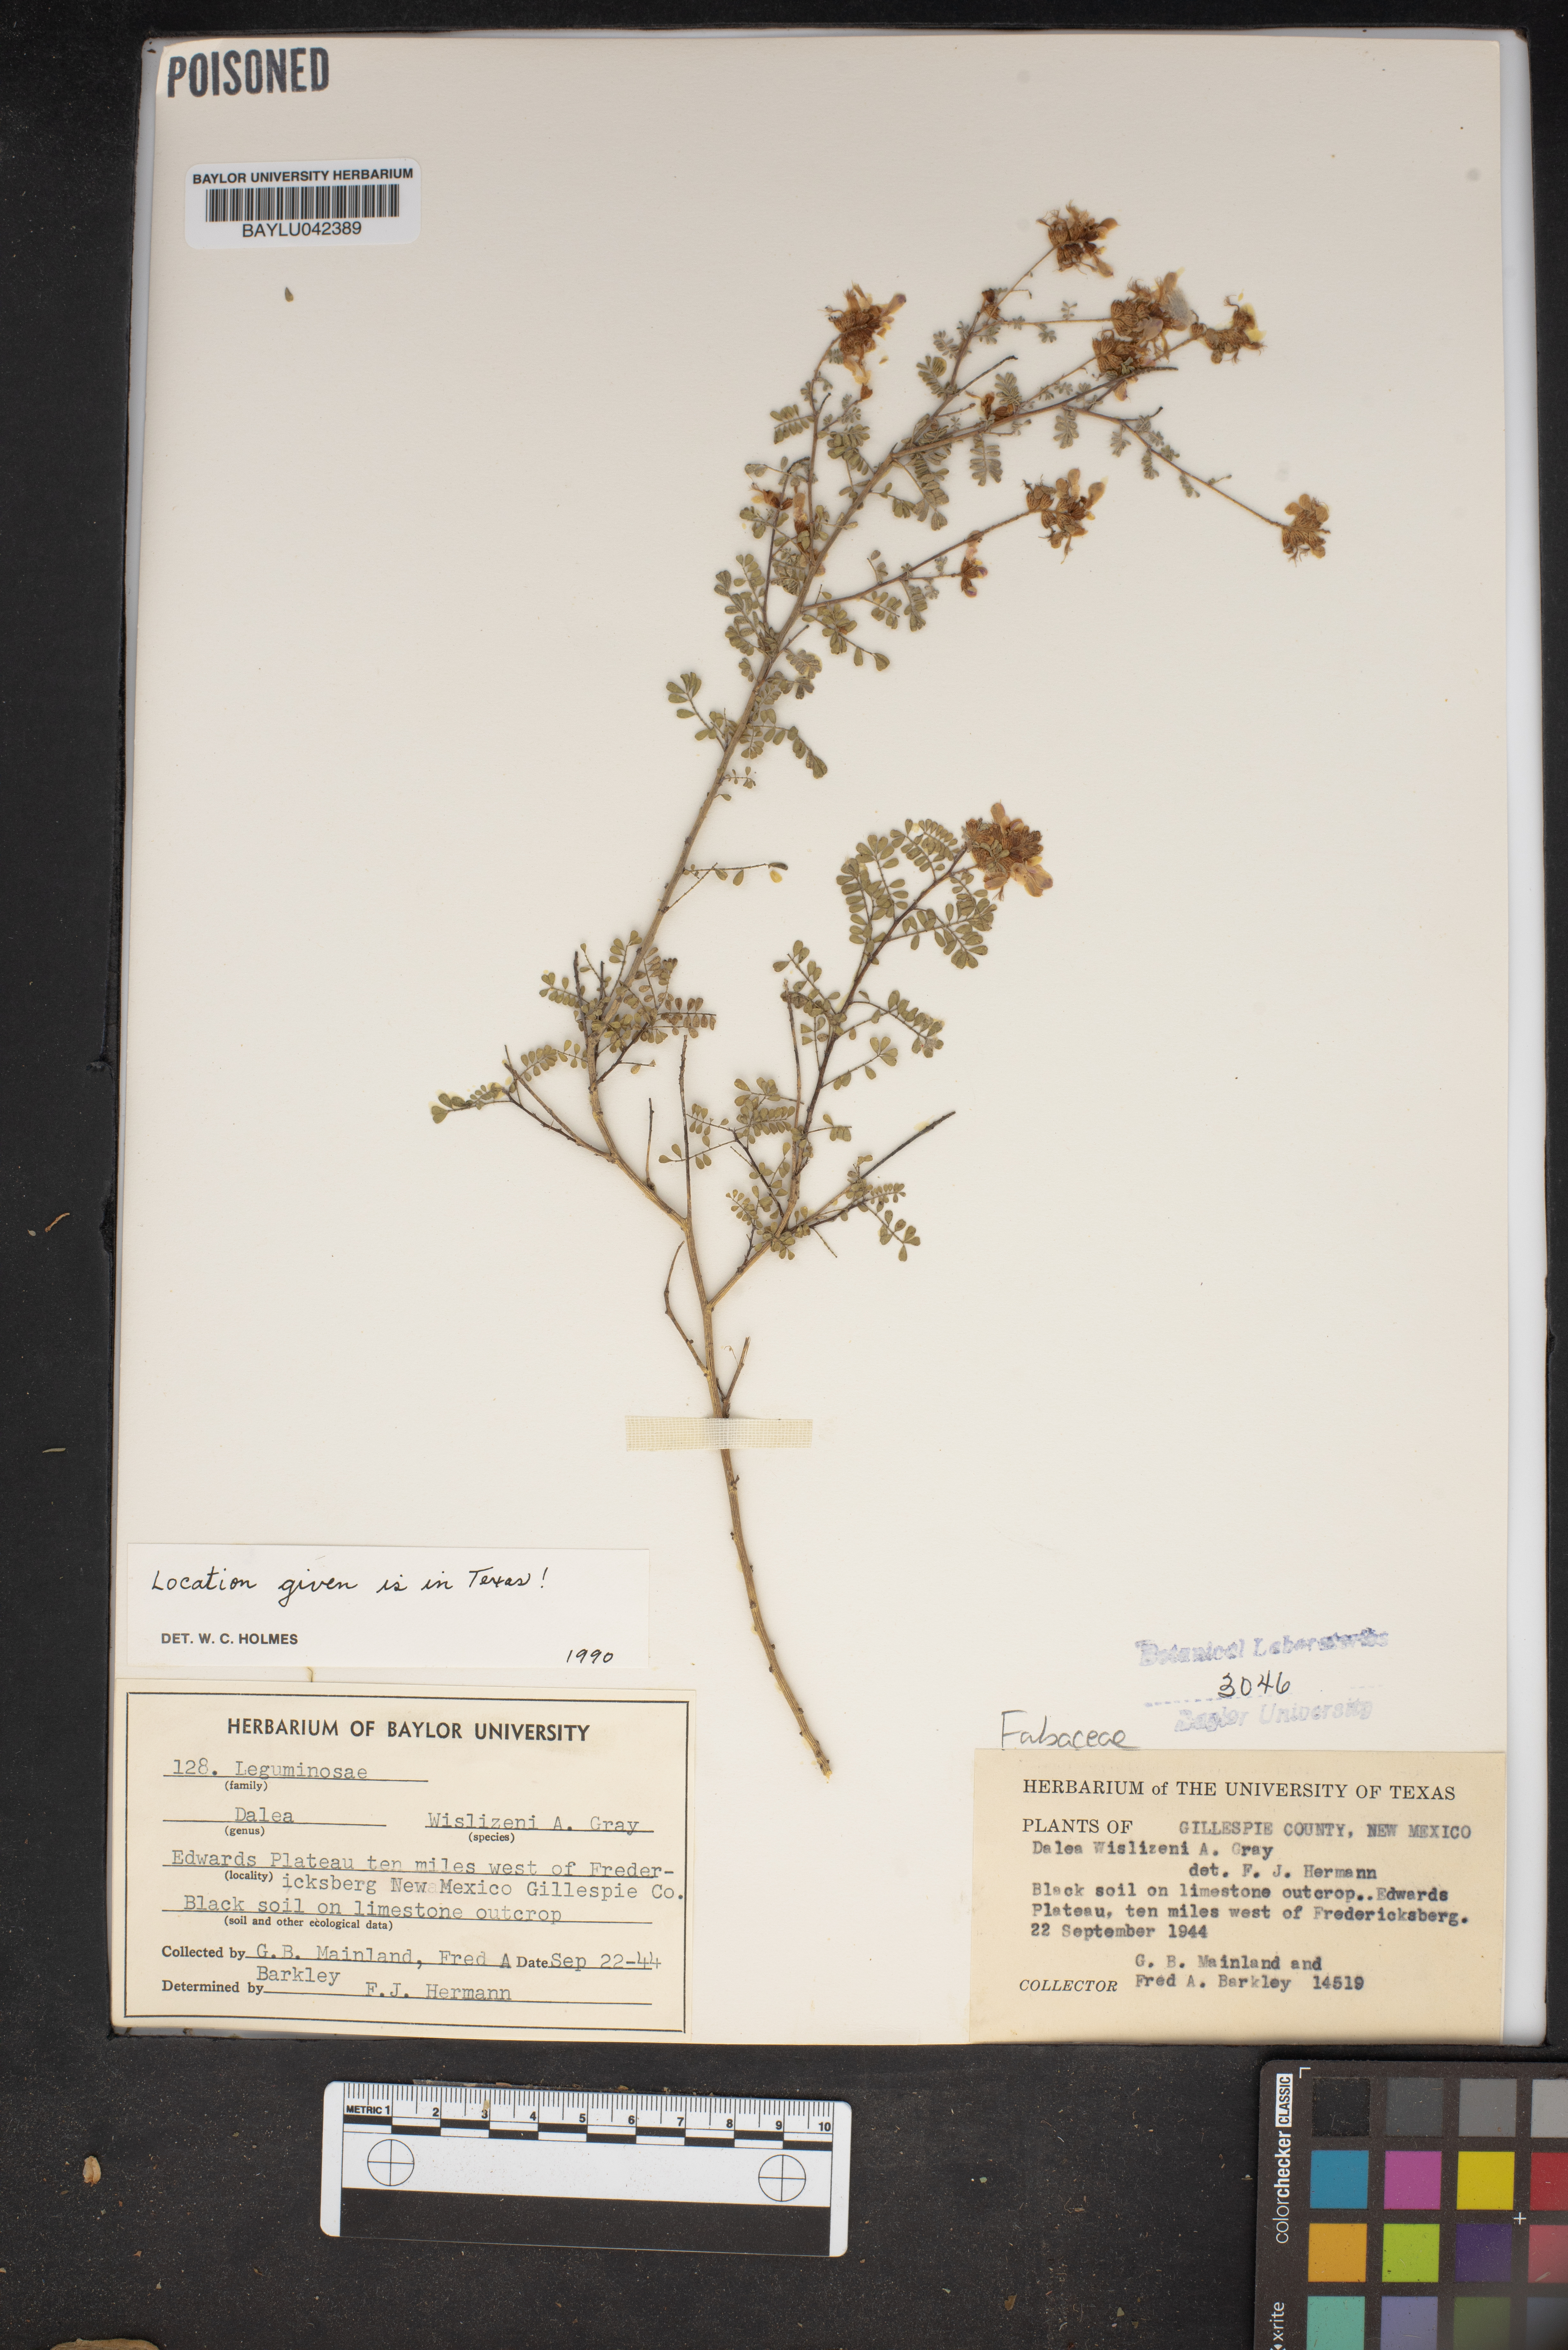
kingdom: Plantae
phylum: Tracheophyta
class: Magnoliopsida
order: Fabales
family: Fabaceae
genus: Dalea
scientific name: Dalea versicolor
